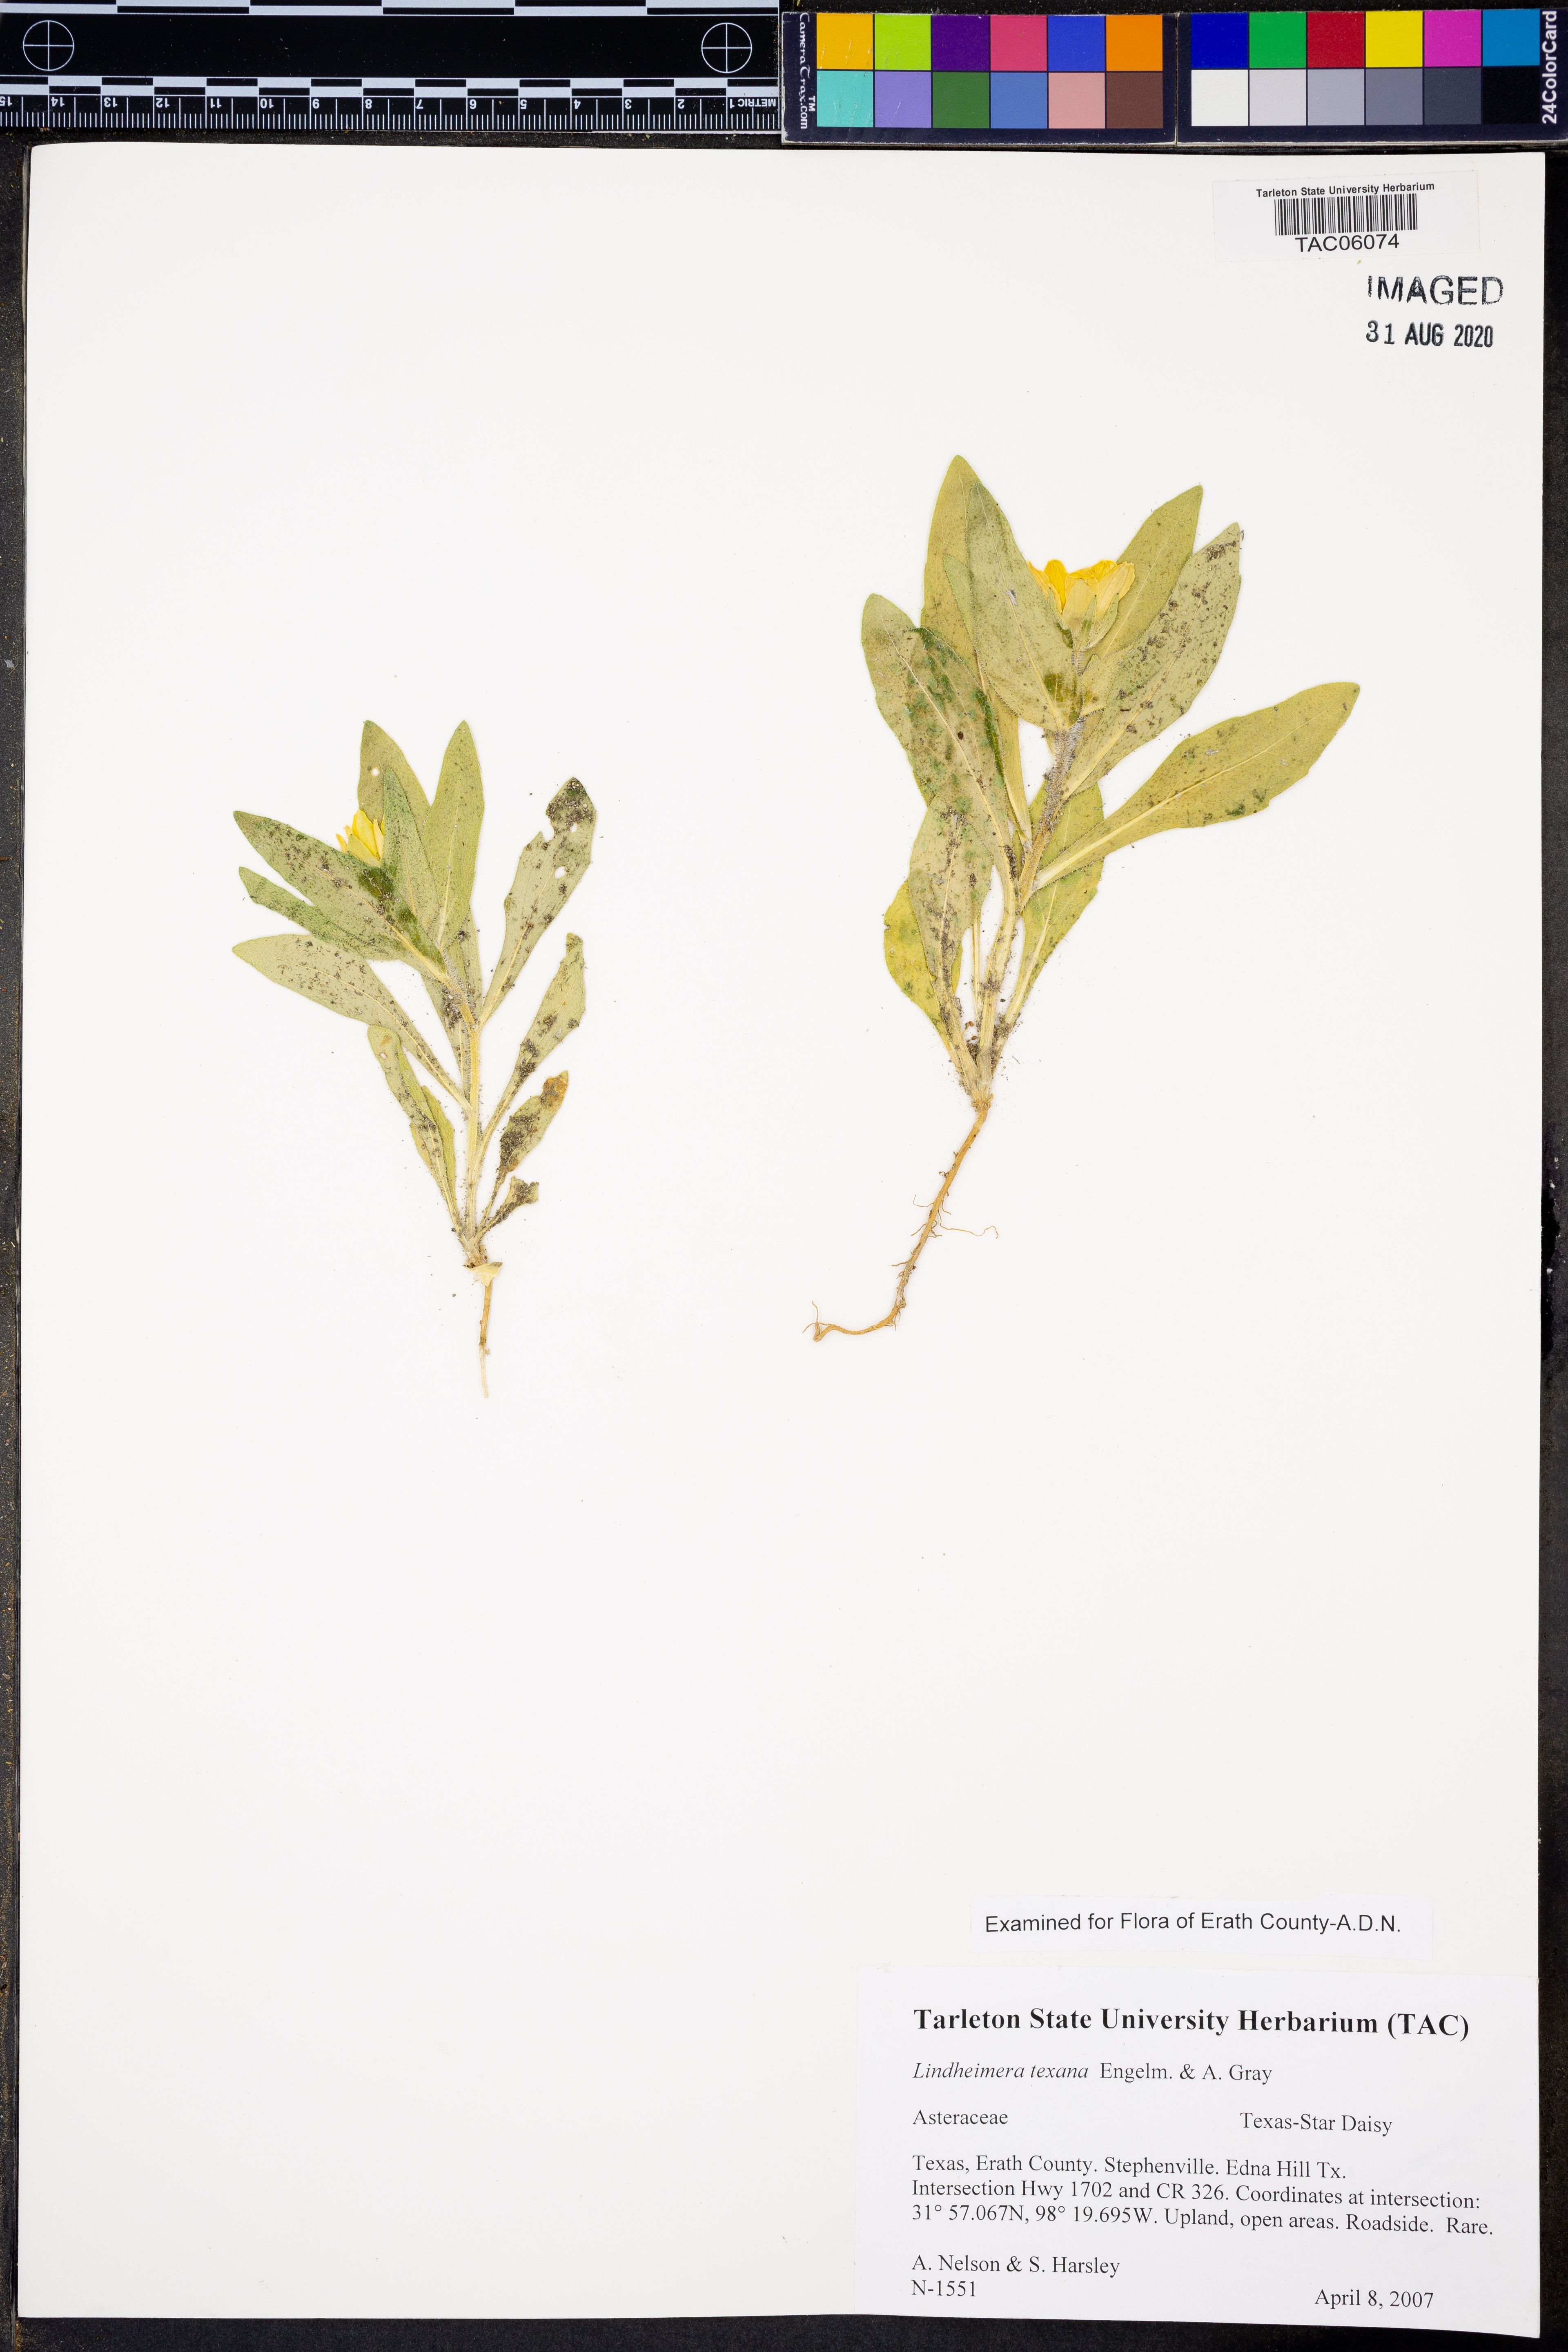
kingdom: Plantae
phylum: Tracheophyta
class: Magnoliopsida
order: Asterales
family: Asteraceae
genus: Lindheimera
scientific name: Lindheimera texana
